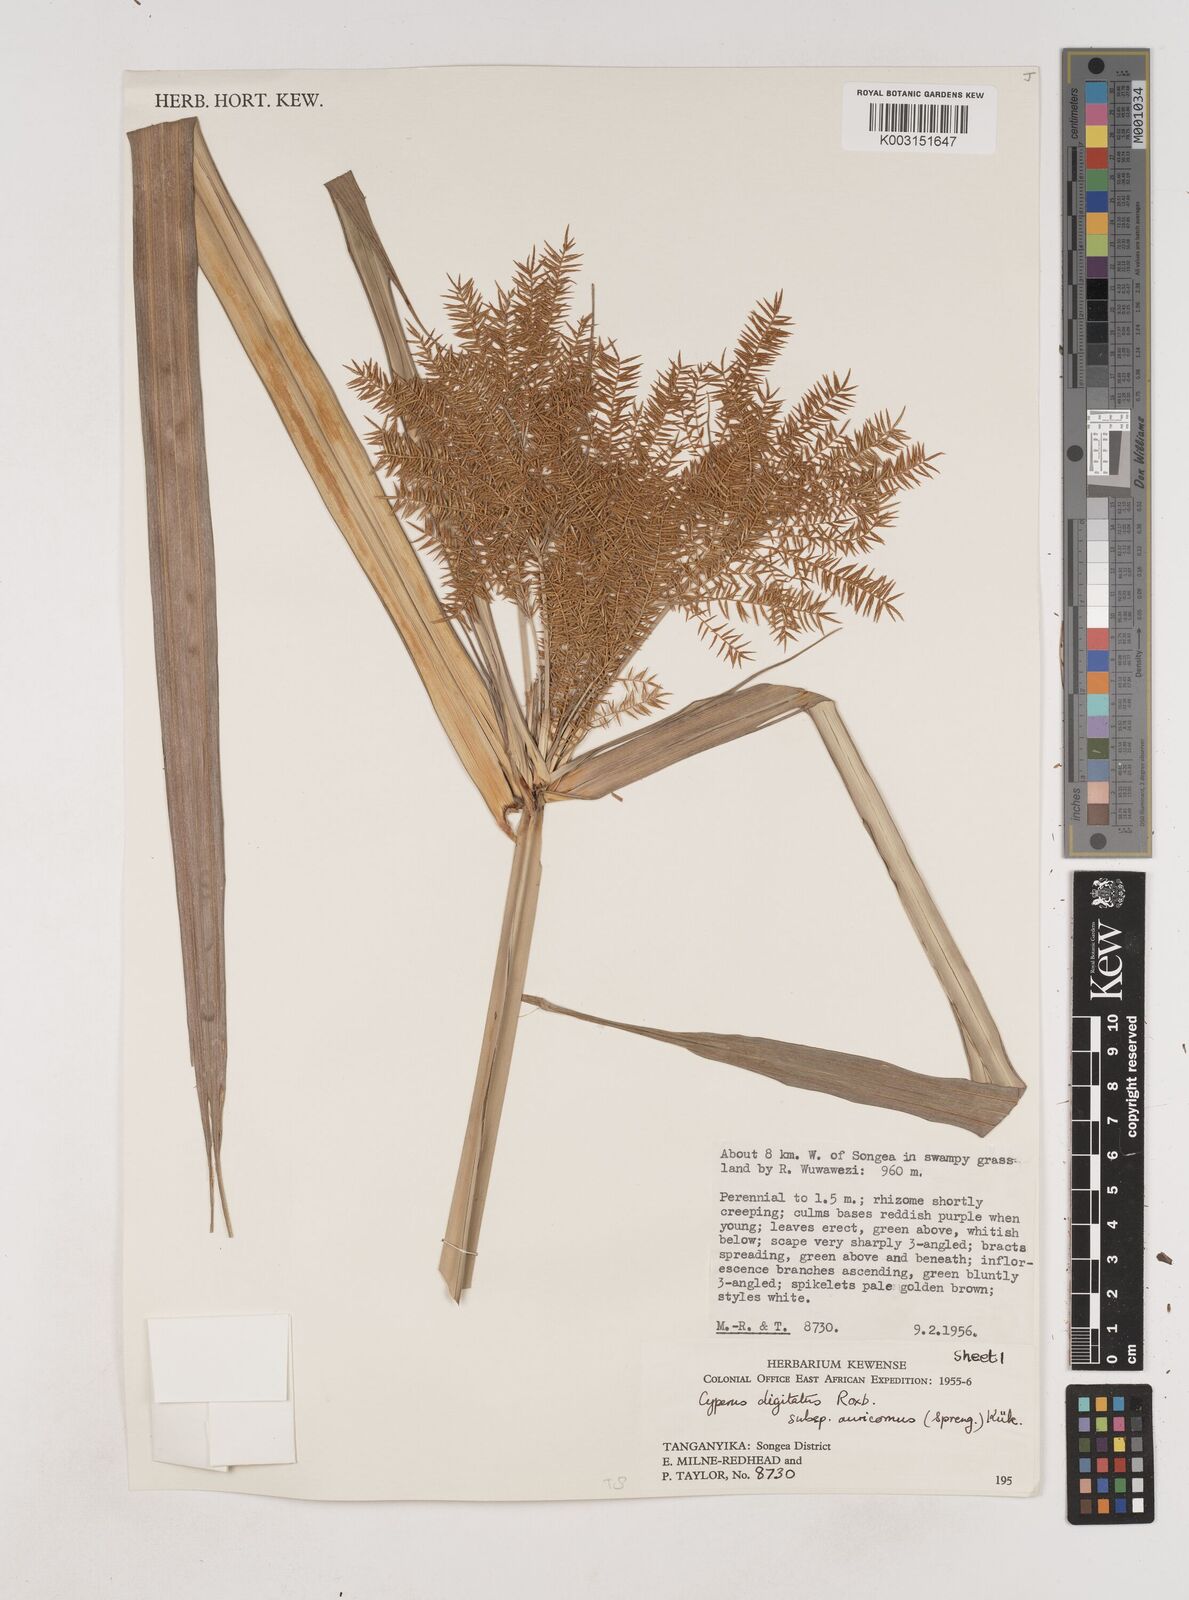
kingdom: Plantae
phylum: Tracheophyta
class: Liliopsida
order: Poales
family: Cyperaceae
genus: Cyperus
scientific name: Cyperus digitatus
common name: Finger flatsedge
